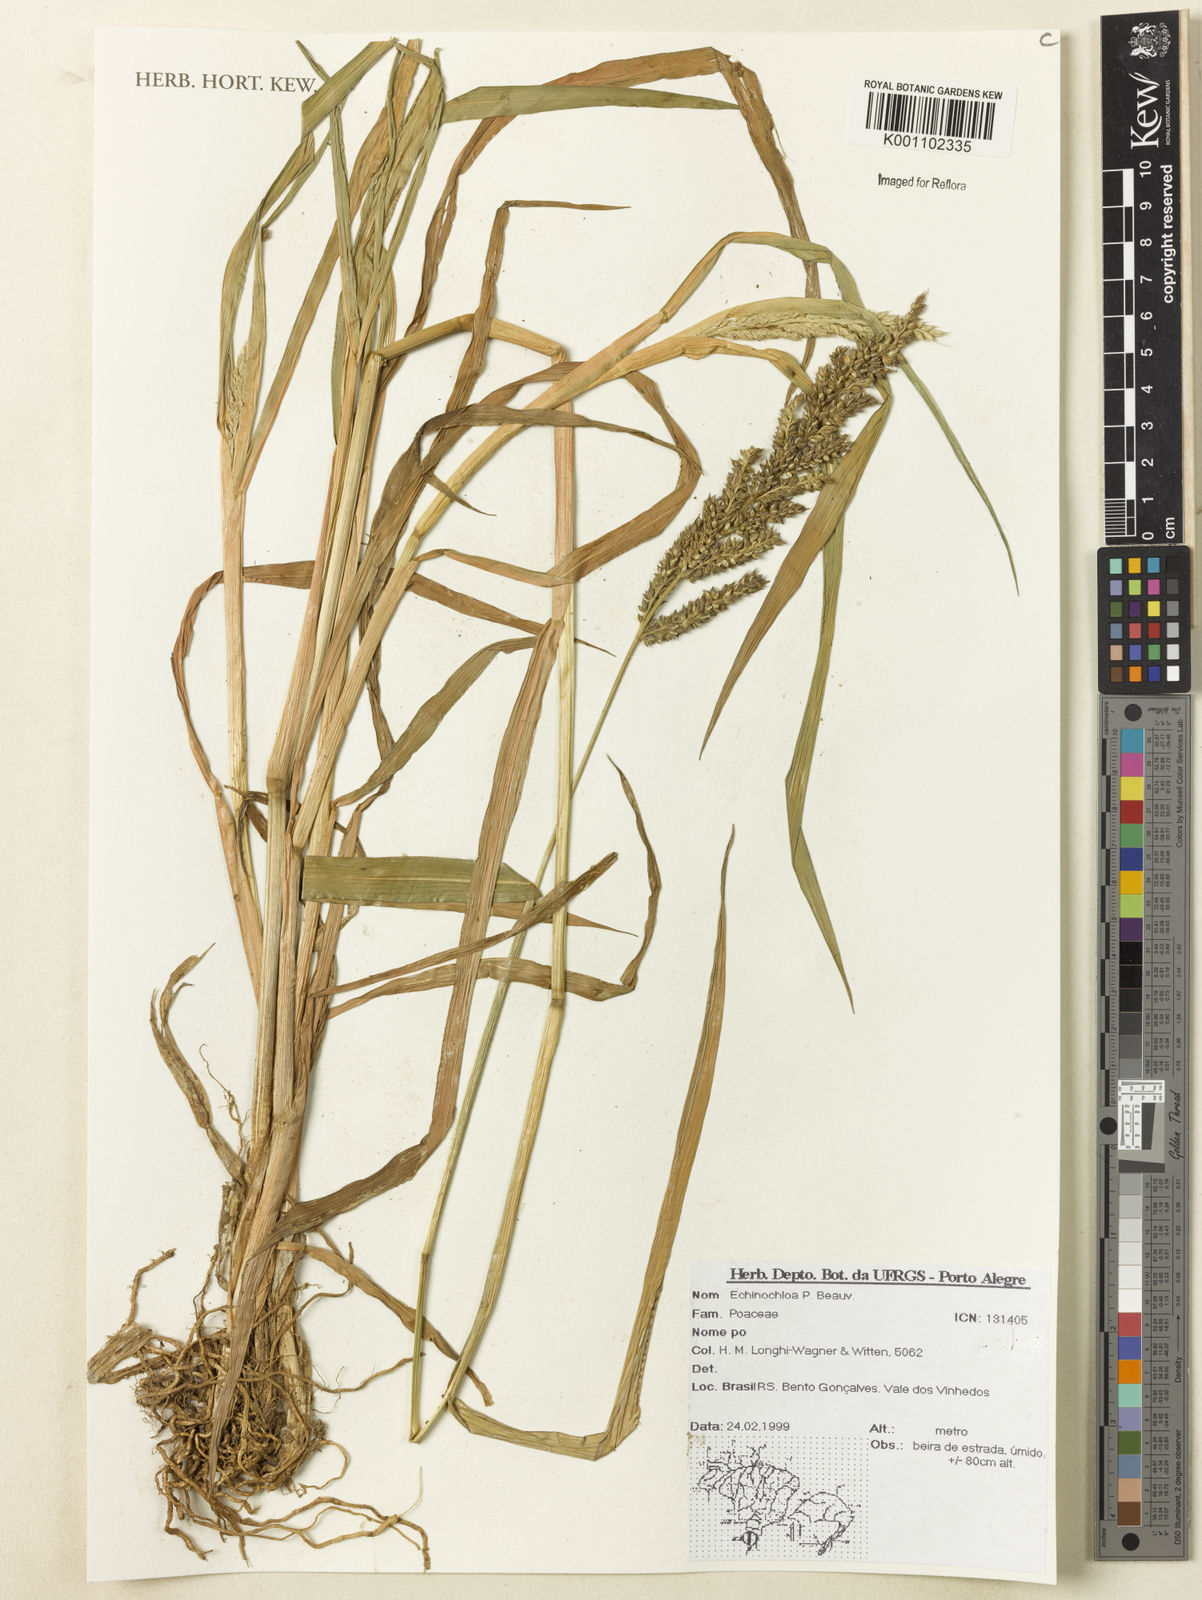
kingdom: Plantae
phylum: Tracheophyta
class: Liliopsida
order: Poales
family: Poaceae
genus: Echinochloa
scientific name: Echinochloa
